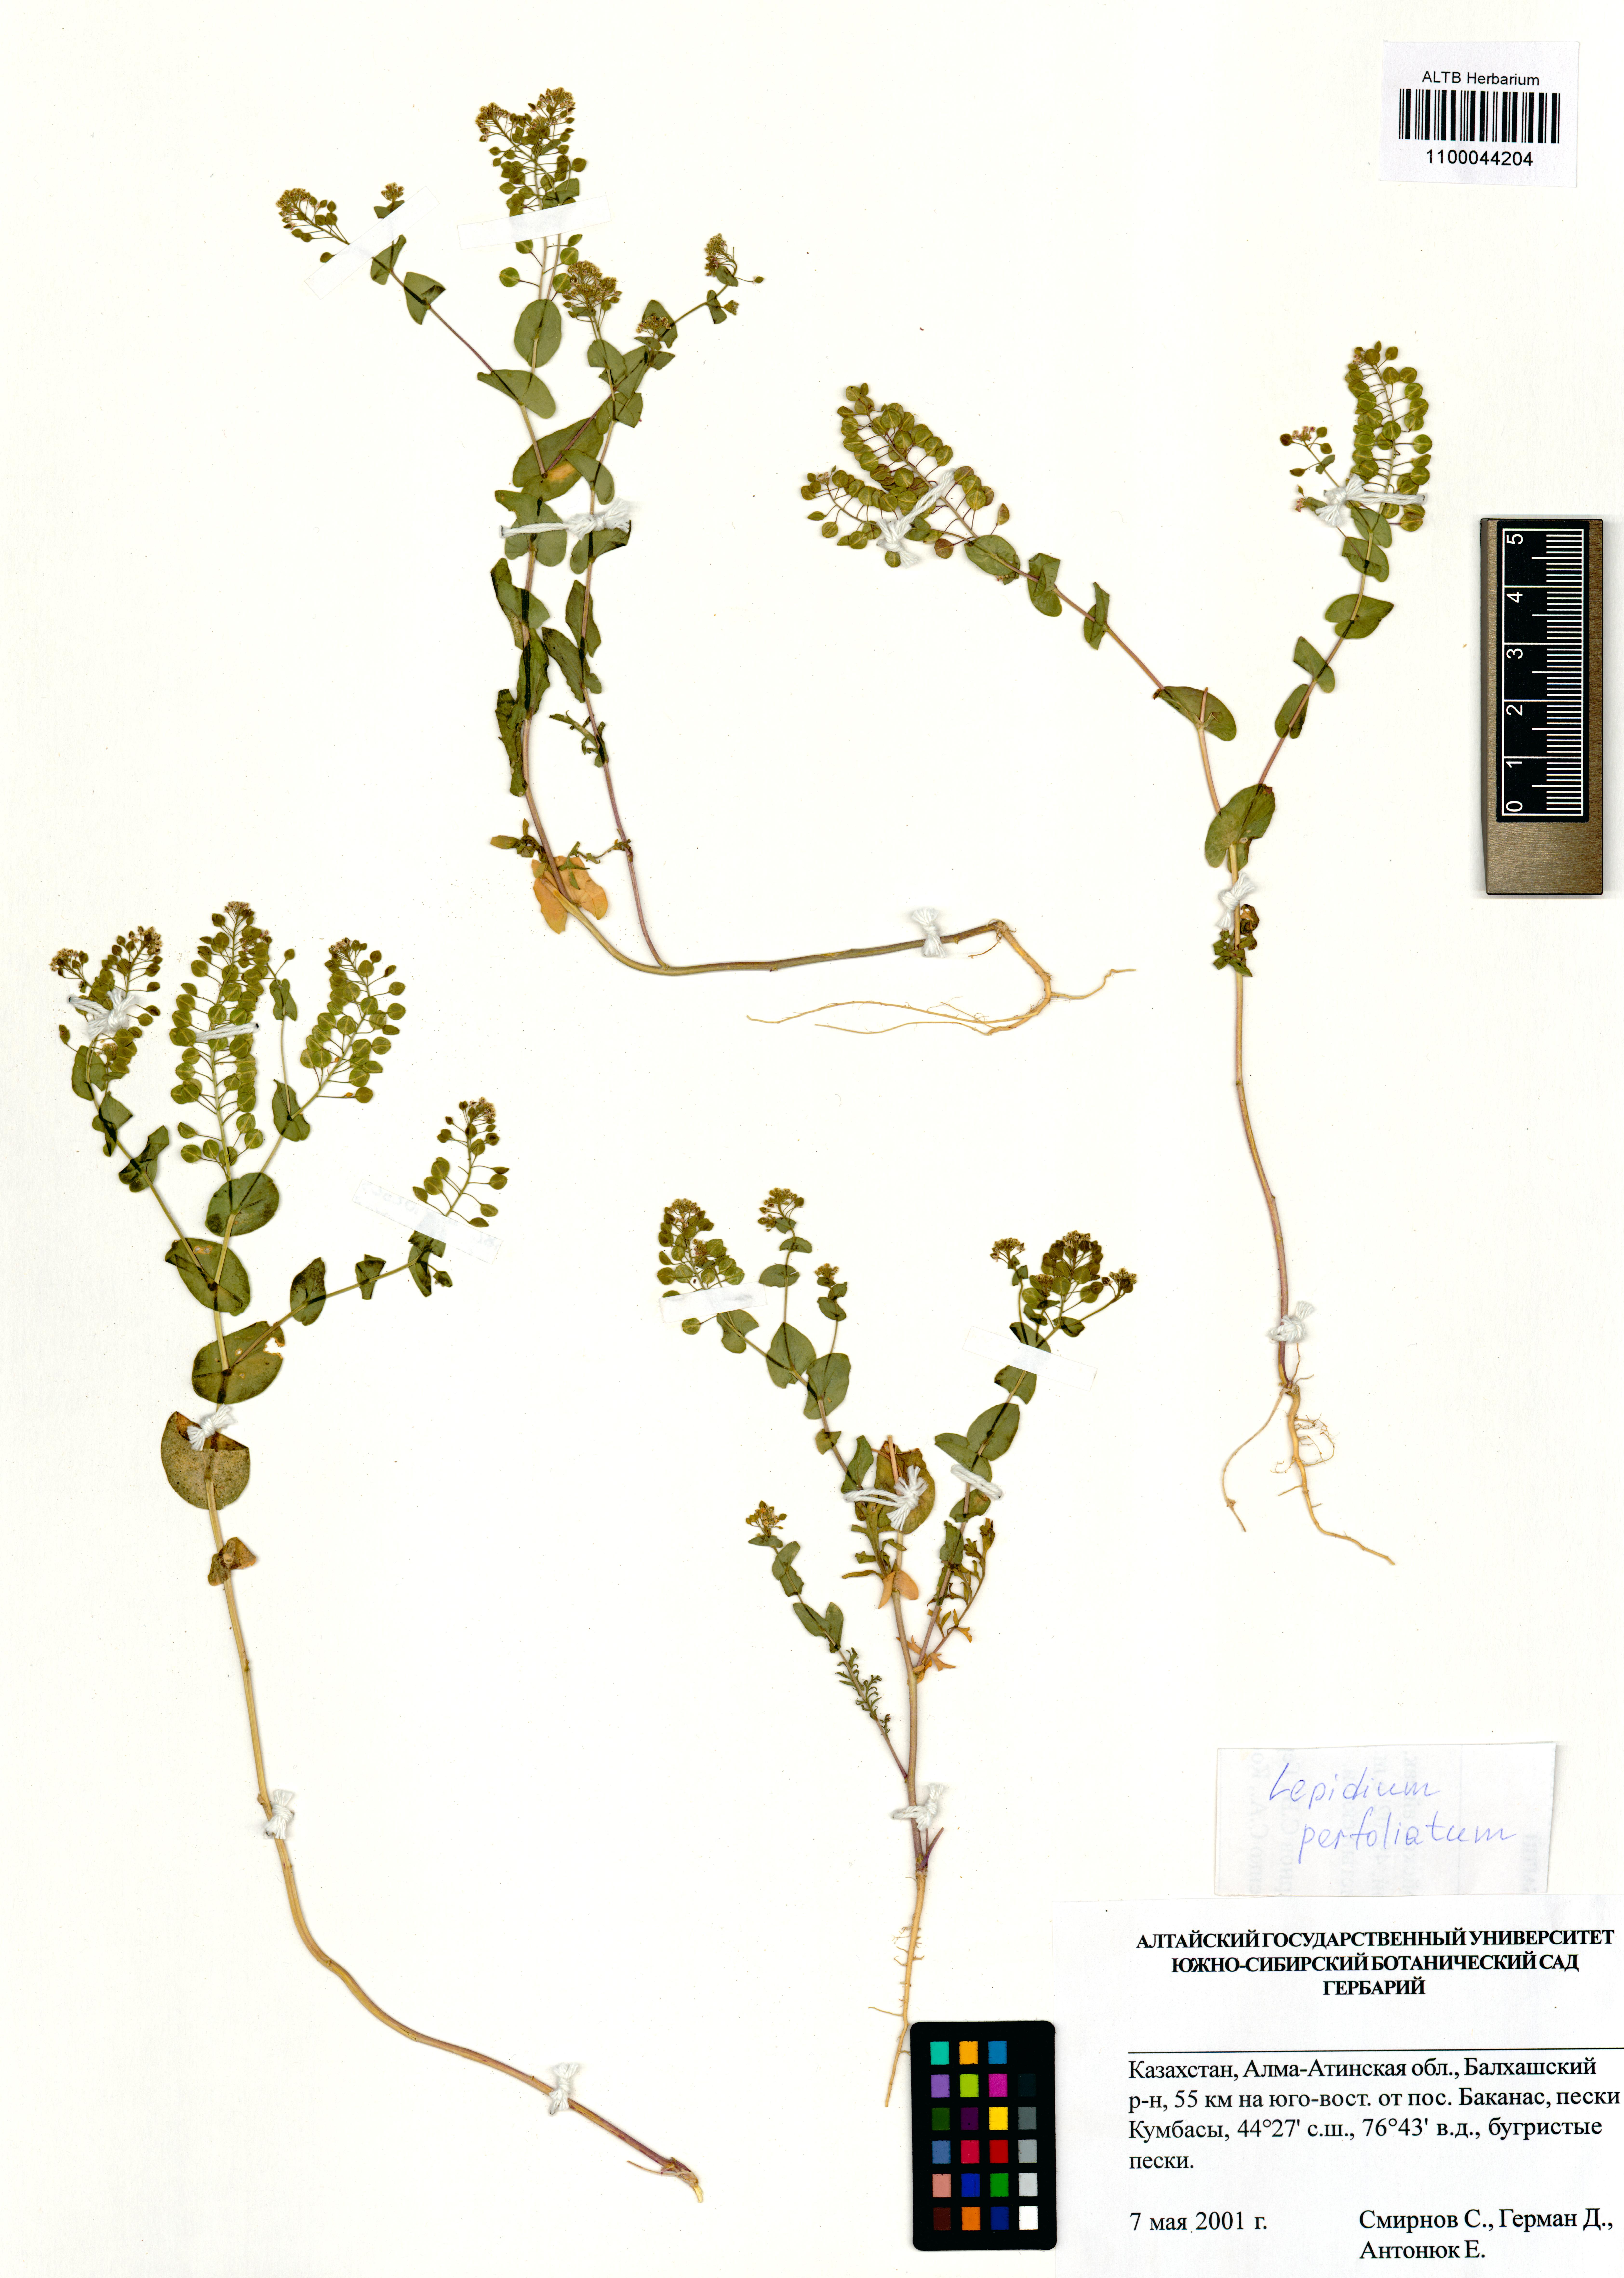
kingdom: Plantae
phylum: Tracheophyta
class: Magnoliopsida
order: Brassicales
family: Brassicaceae
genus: Lepidium
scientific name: Lepidium perfoliatum
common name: Perfoliate pepperwort
